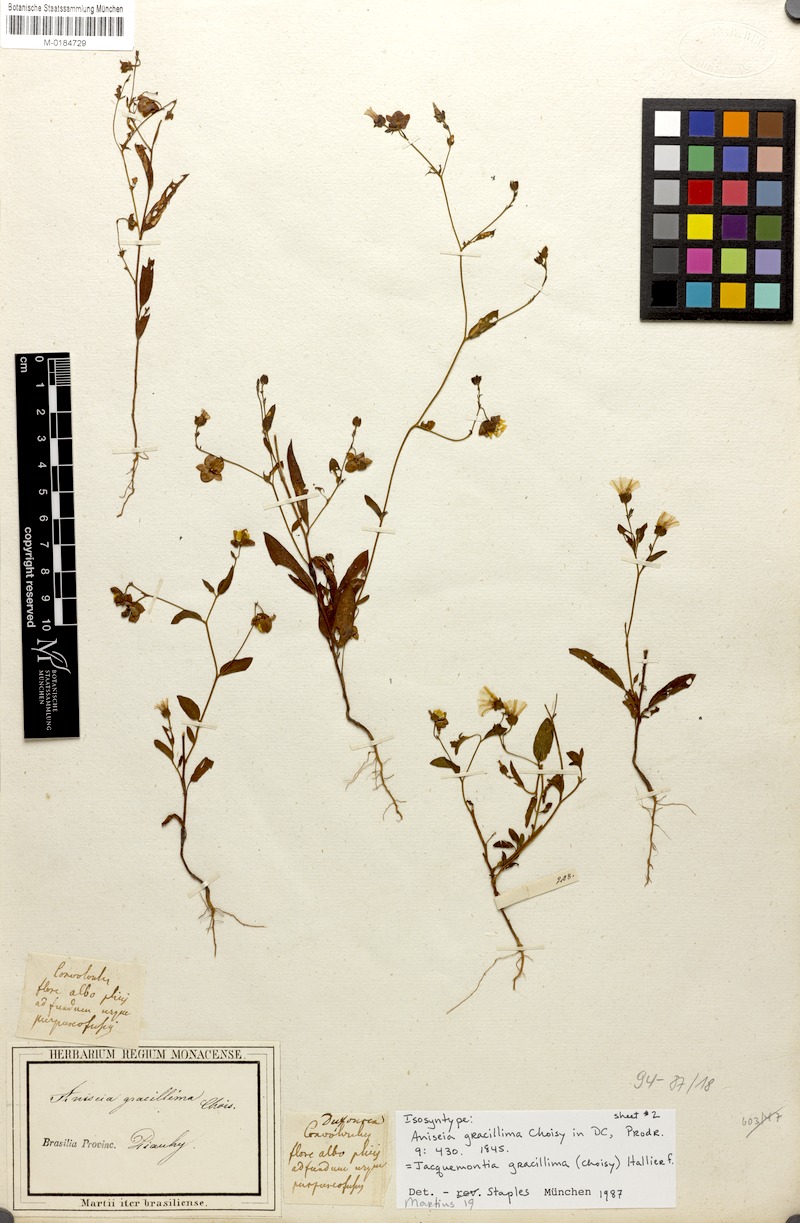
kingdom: Plantae
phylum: Tracheophyta
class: Magnoliopsida
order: Solanales
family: Convolvulaceae
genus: Jacquemontia
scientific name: Jacquemontia gracillima
